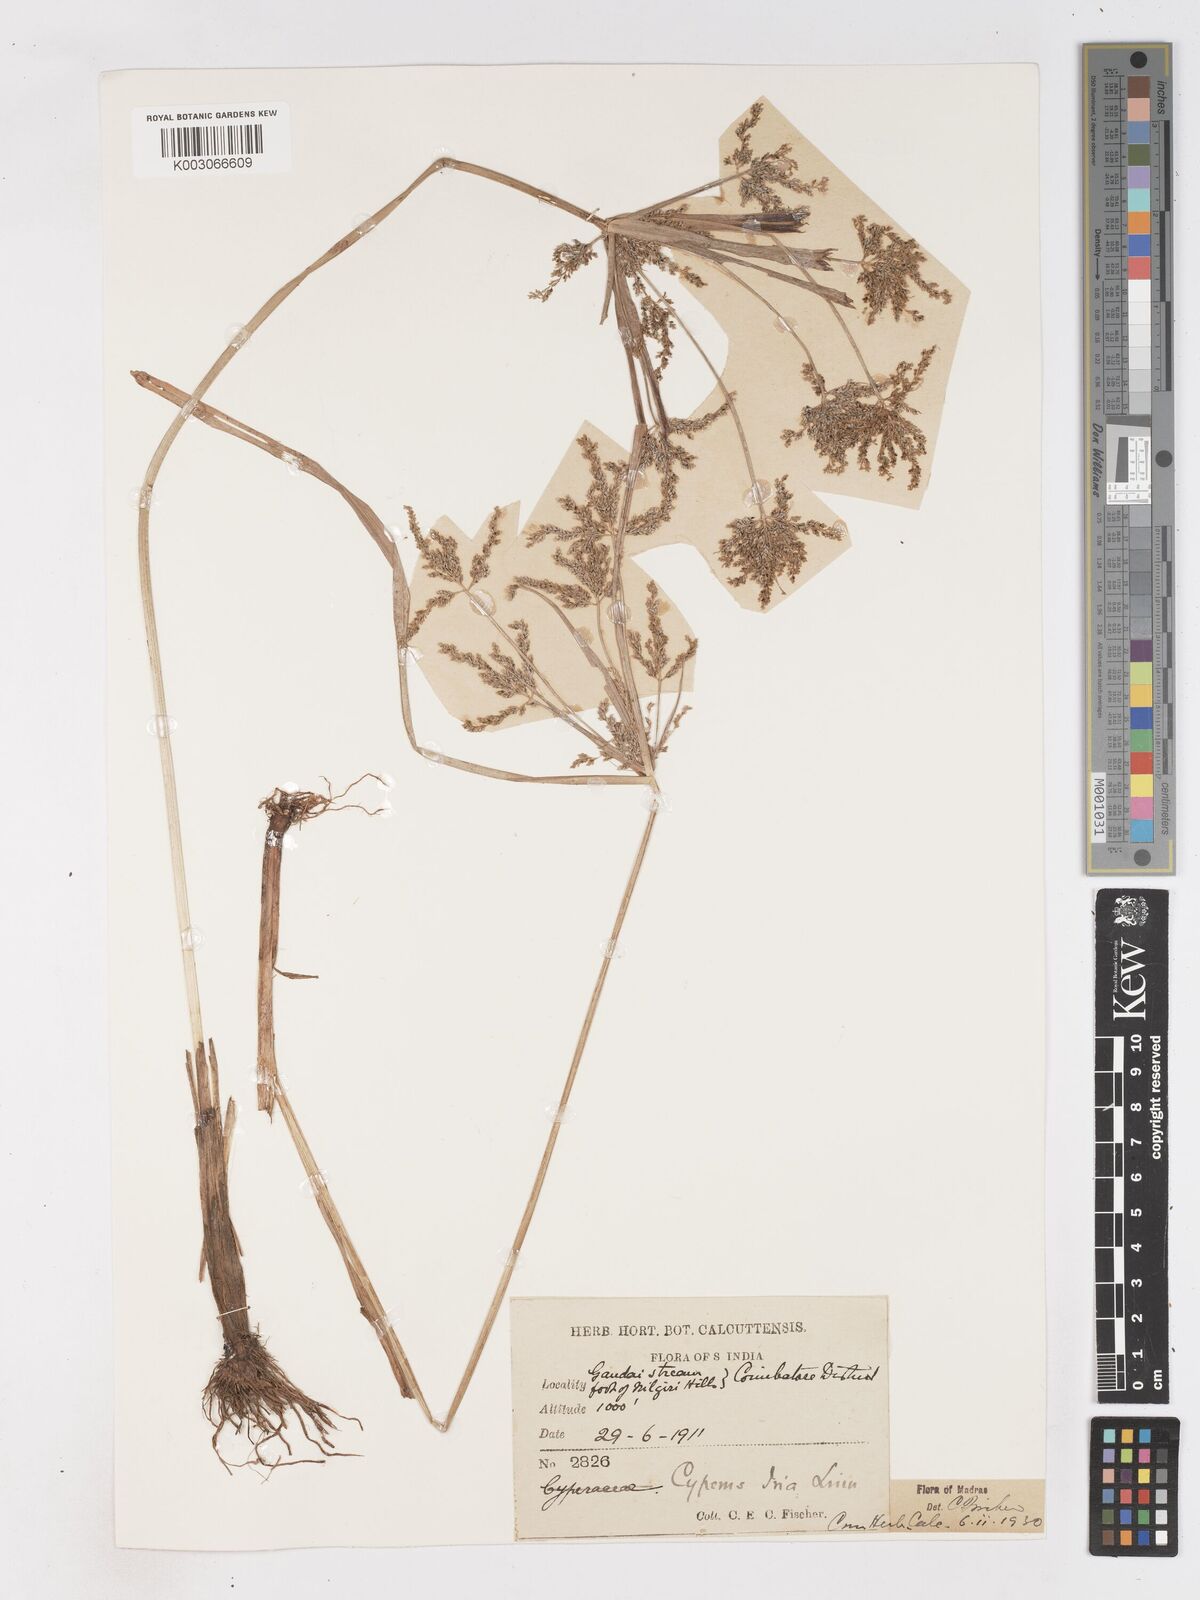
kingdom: Plantae
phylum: Tracheophyta
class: Liliopsida
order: Poales
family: Cyperaceae
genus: Cyperus
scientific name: Cyperus microiria
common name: Asian flatsedge
